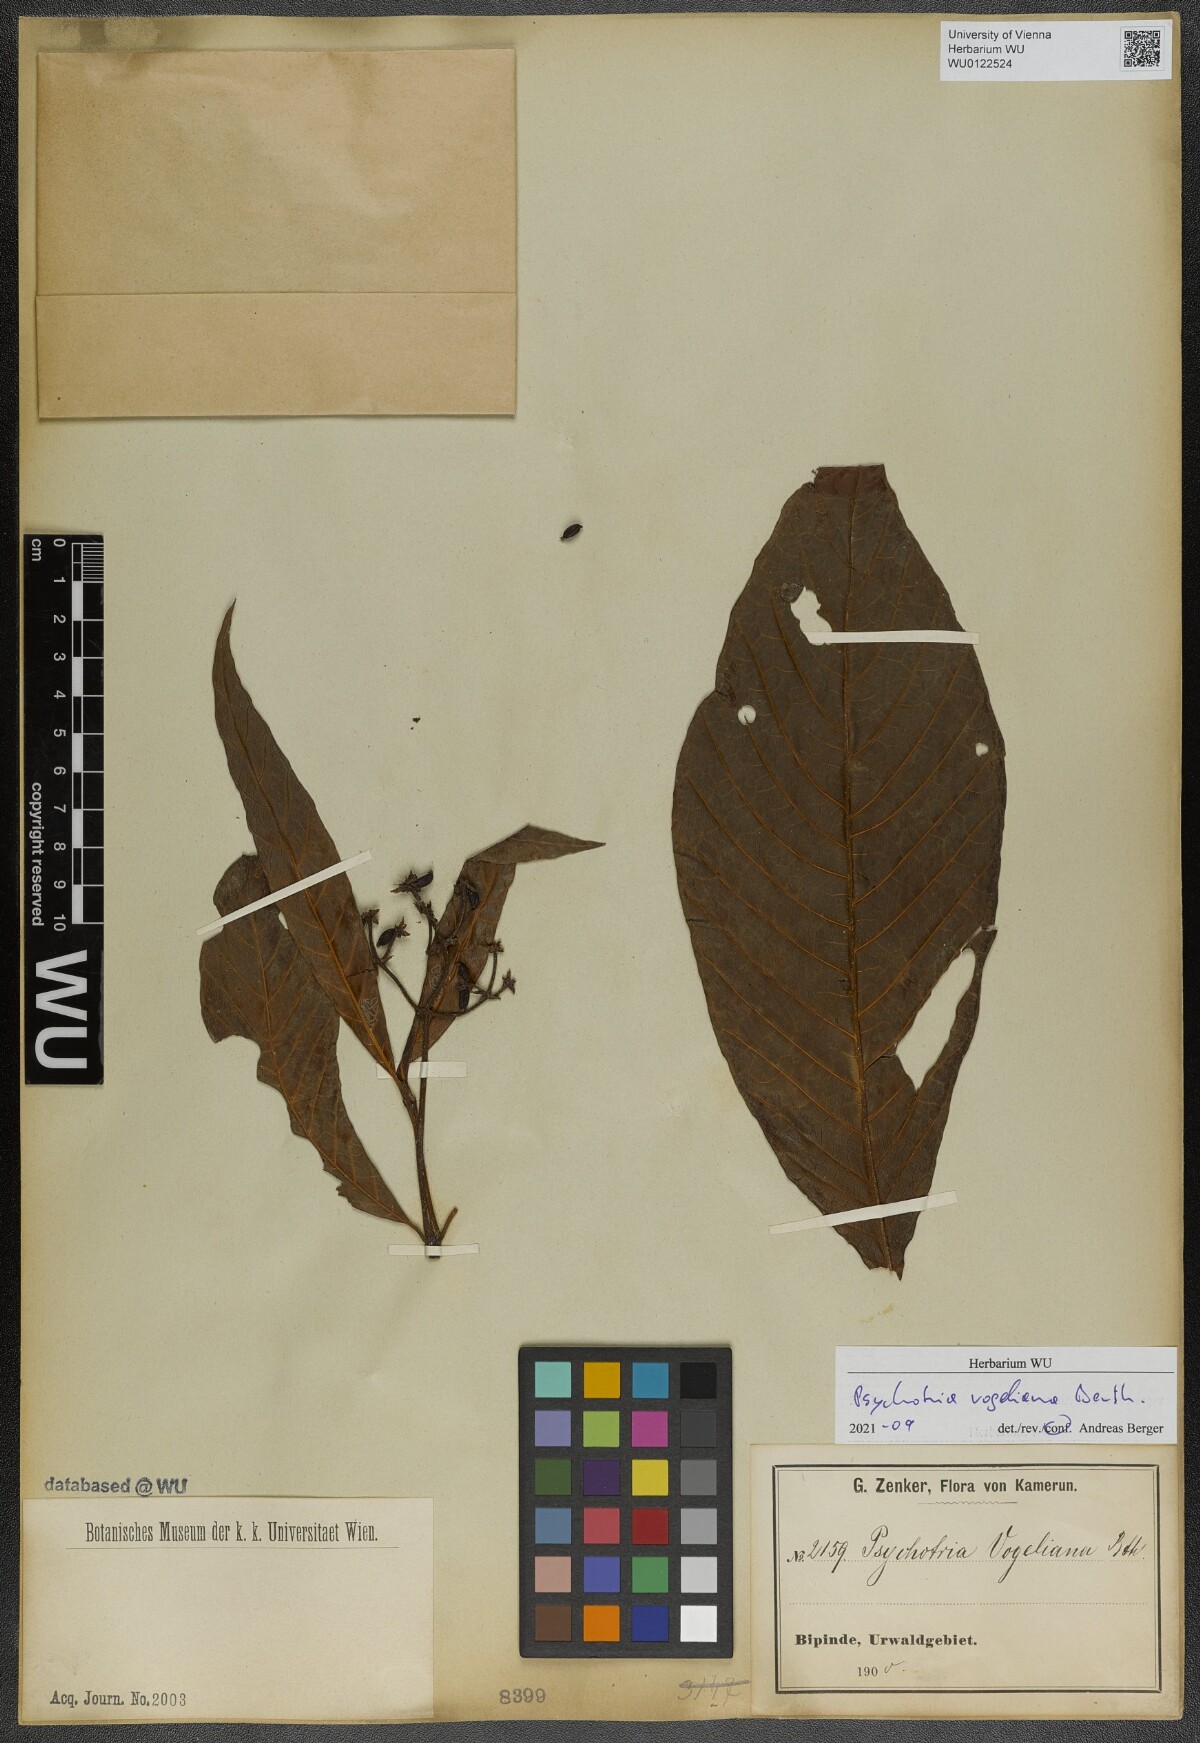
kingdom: Plantae
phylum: Tracheophyta
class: Magnoliopsida
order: Gentianales
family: Rubiaceae
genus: Psychotria
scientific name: Psychotria vogeliana
